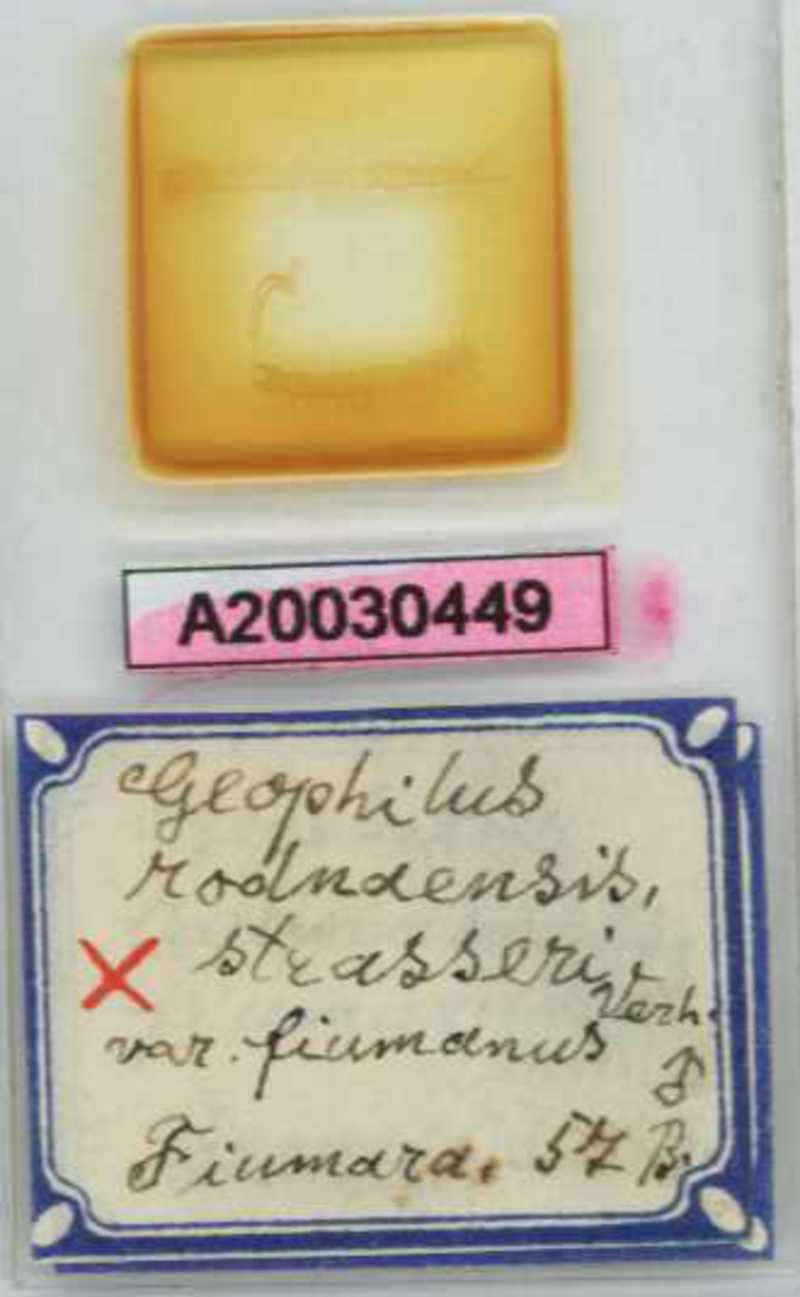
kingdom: Animalia
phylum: Arthropoda
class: Chilopoda
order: Geophilomorpha
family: Geophilidae
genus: Clinopodes
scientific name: Clinopodes trebevicensis
